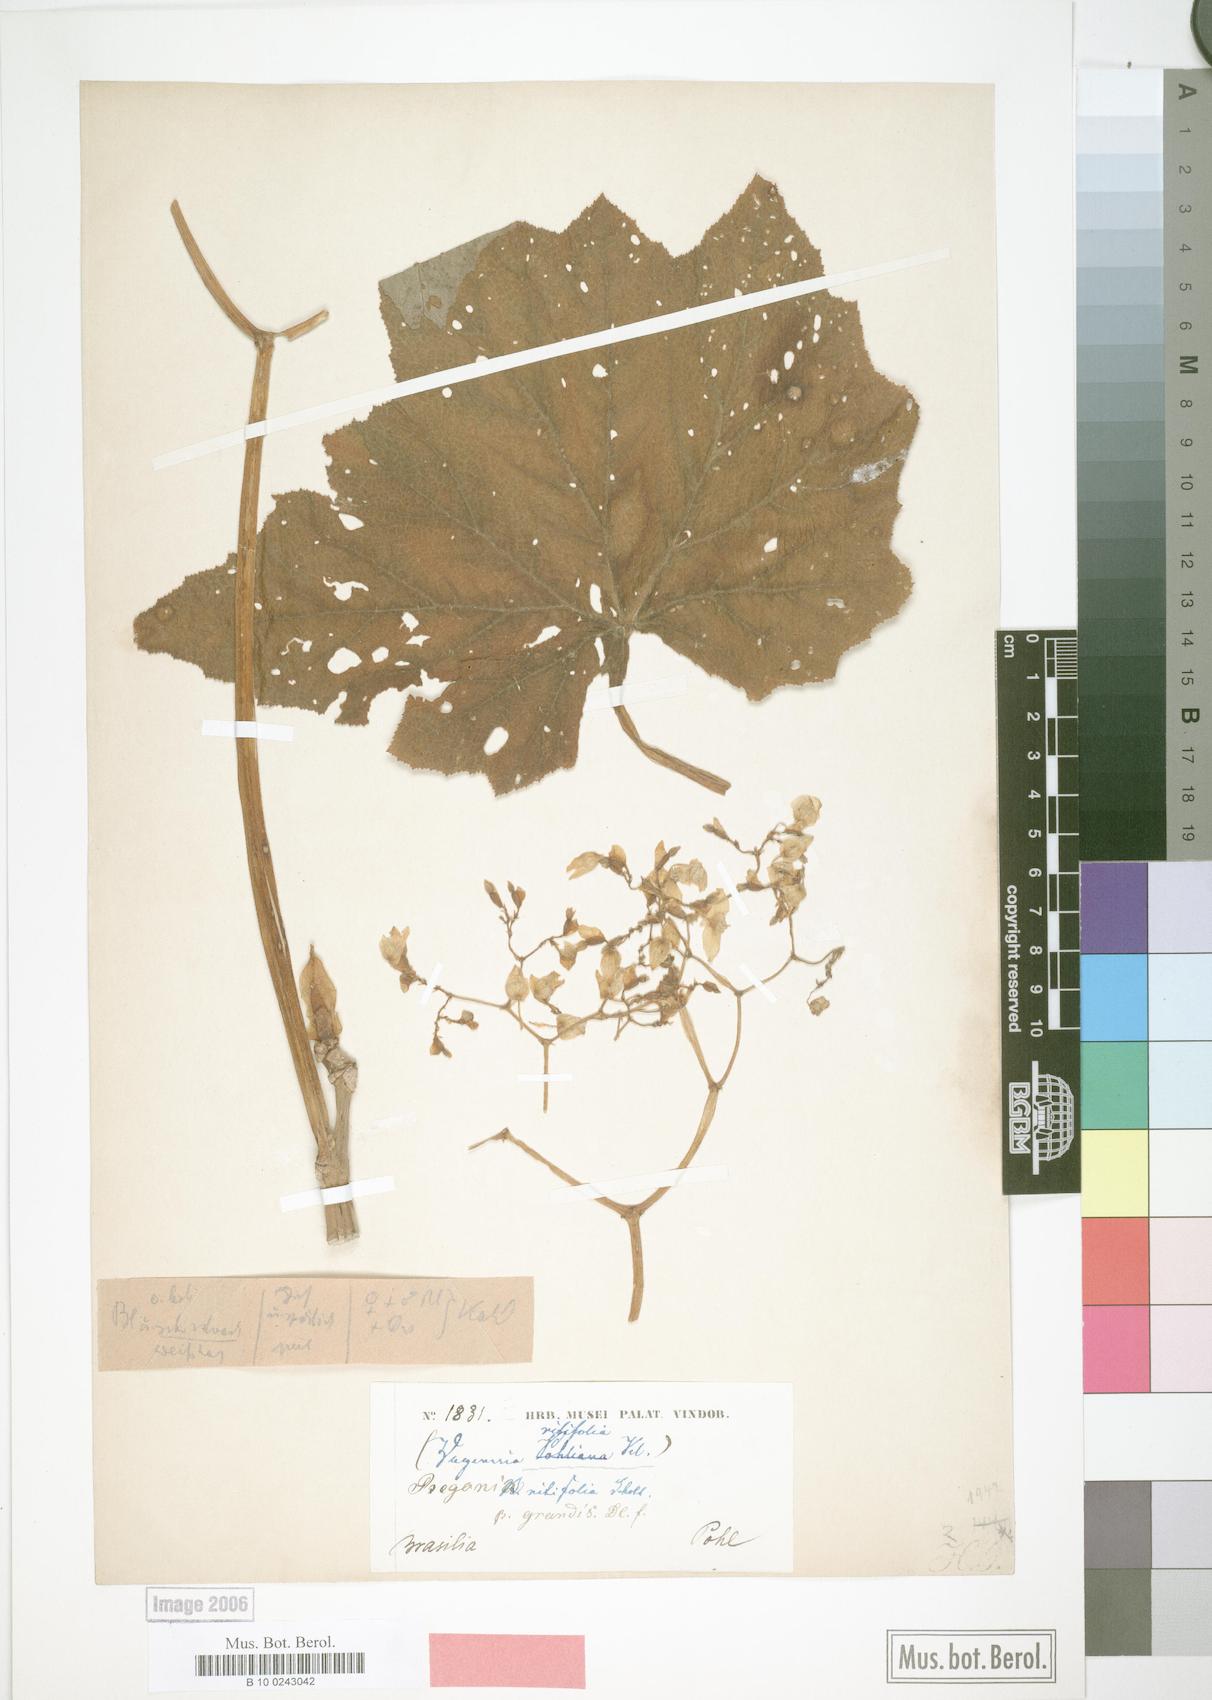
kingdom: Plantae
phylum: Tracheophyta
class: Magnoliopsida
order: Cucurbitales
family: Begoniaceae
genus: Begonia
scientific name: Begonia reniformis
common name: Grapeleaf begonia
